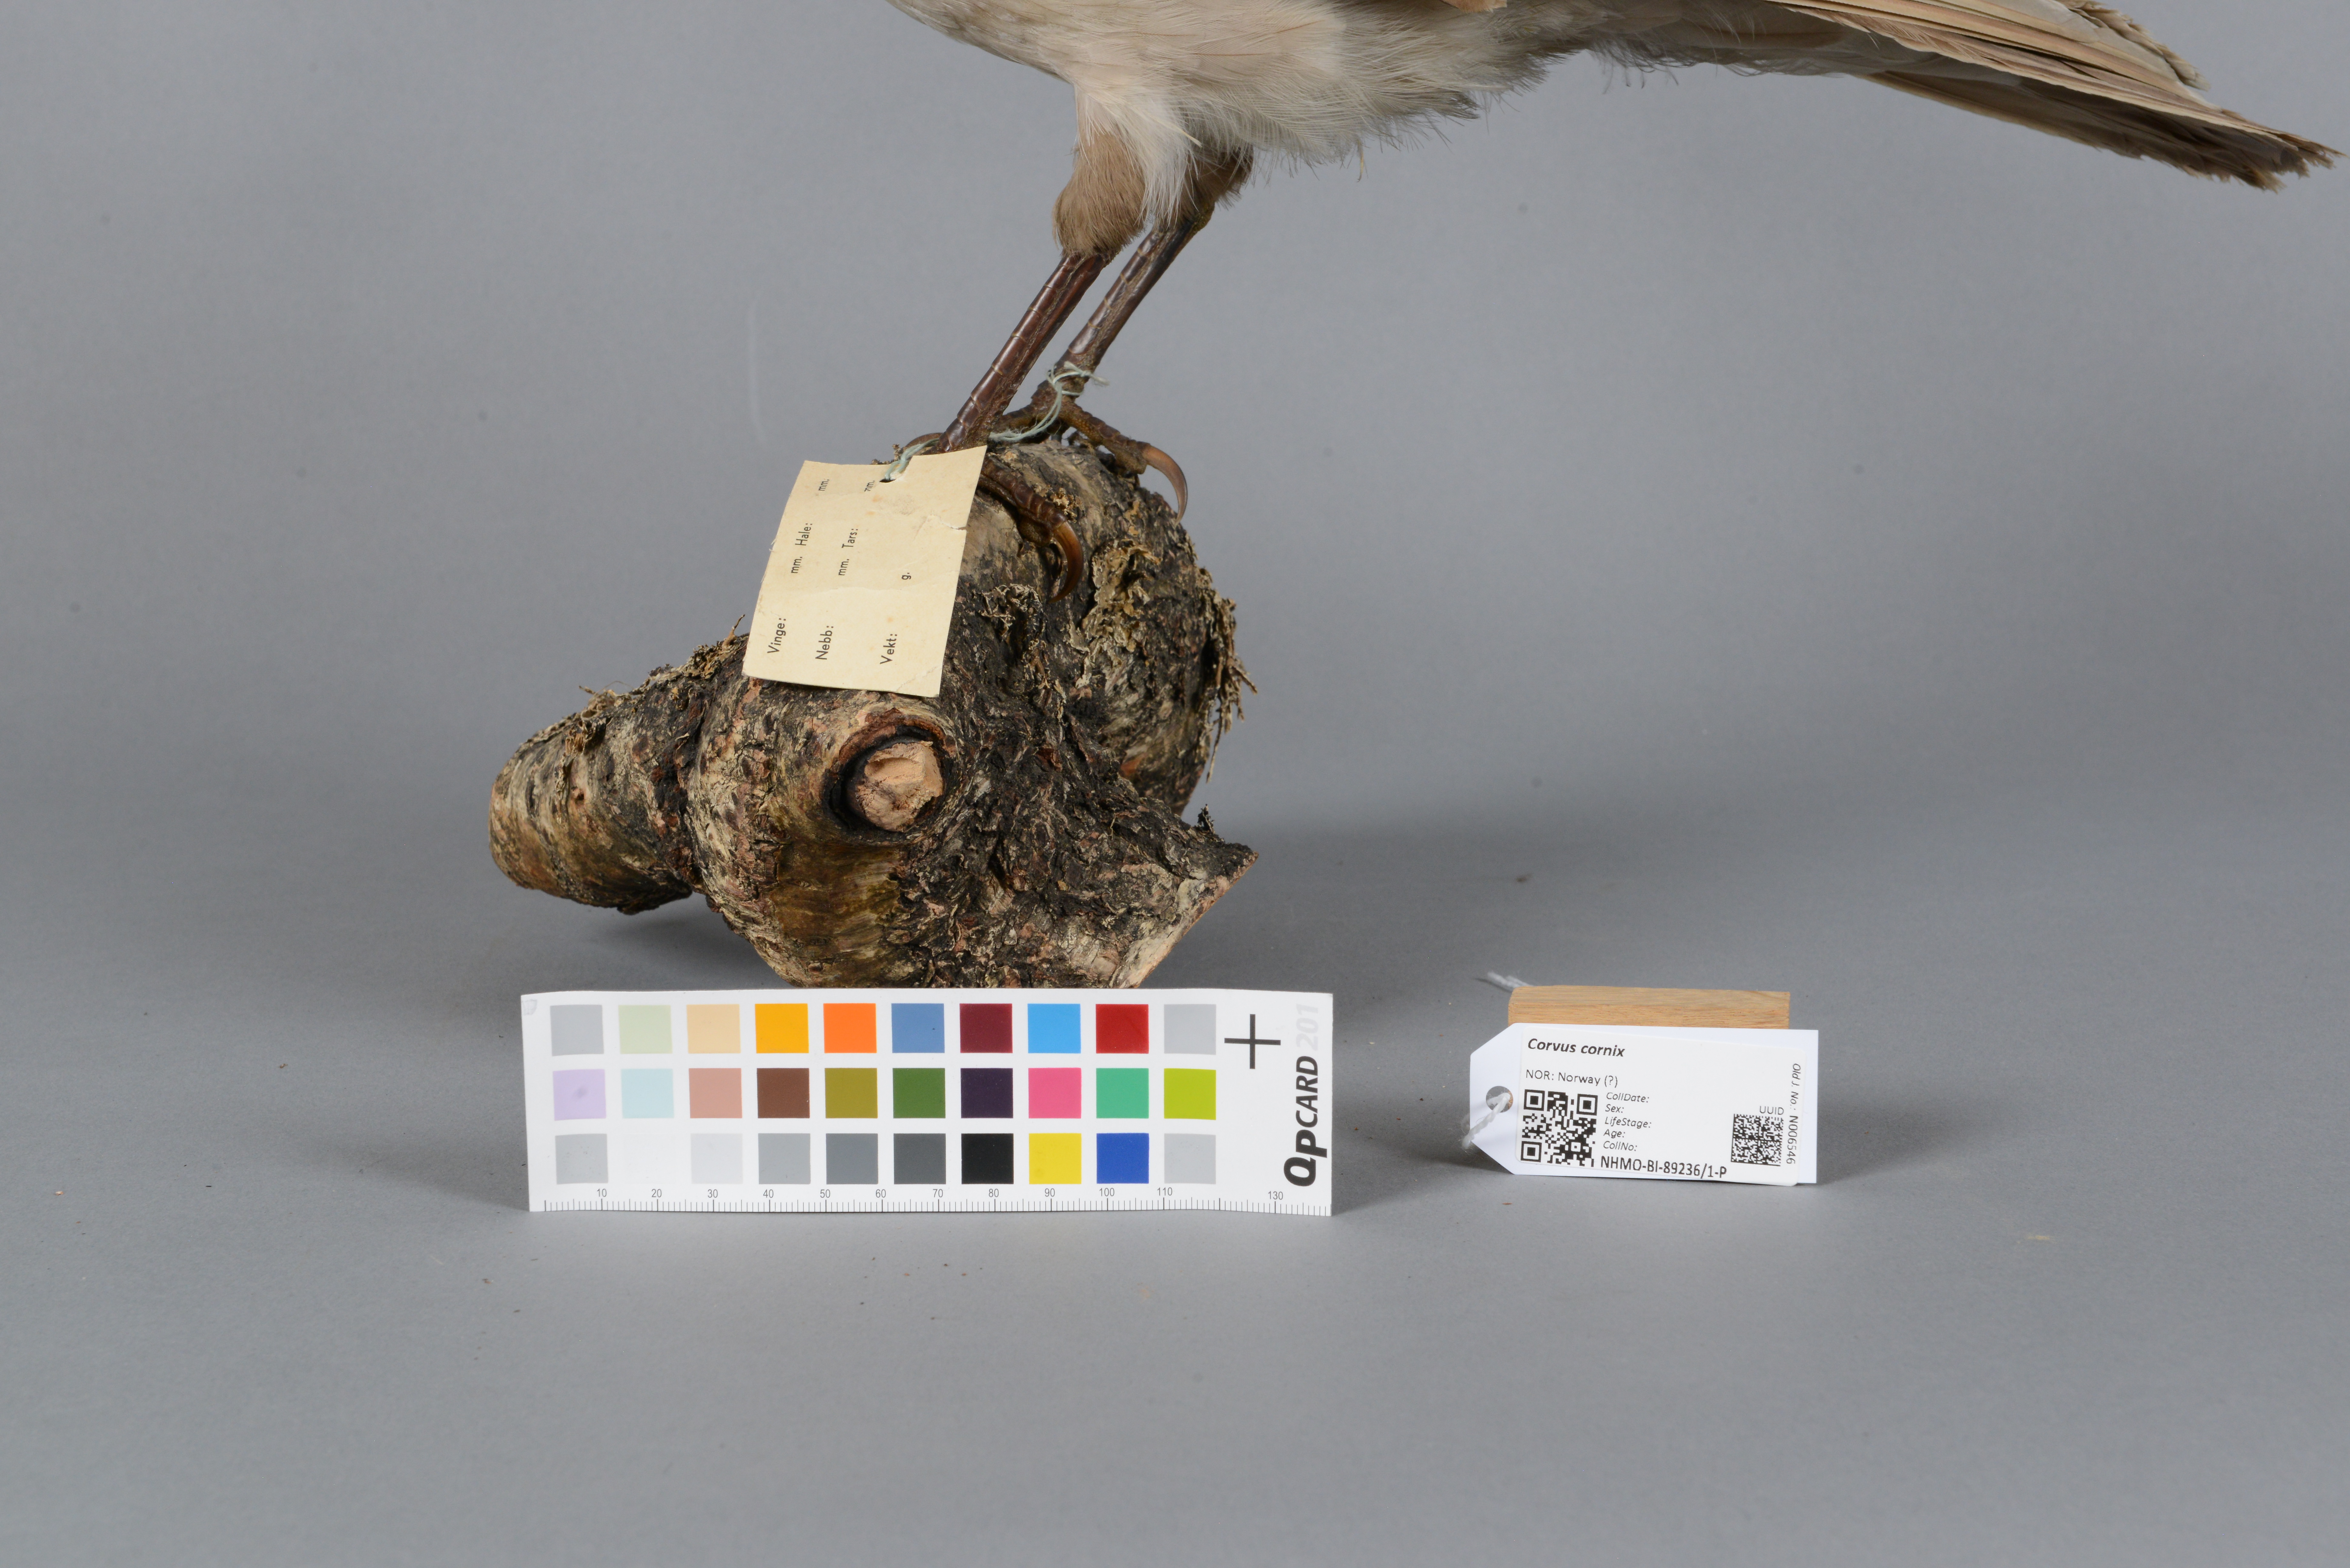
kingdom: Animalia
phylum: Chordata
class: Aves
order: Passeriformes
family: Corvidae
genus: Corvus
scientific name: Corvus cornix
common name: Hooded crow
